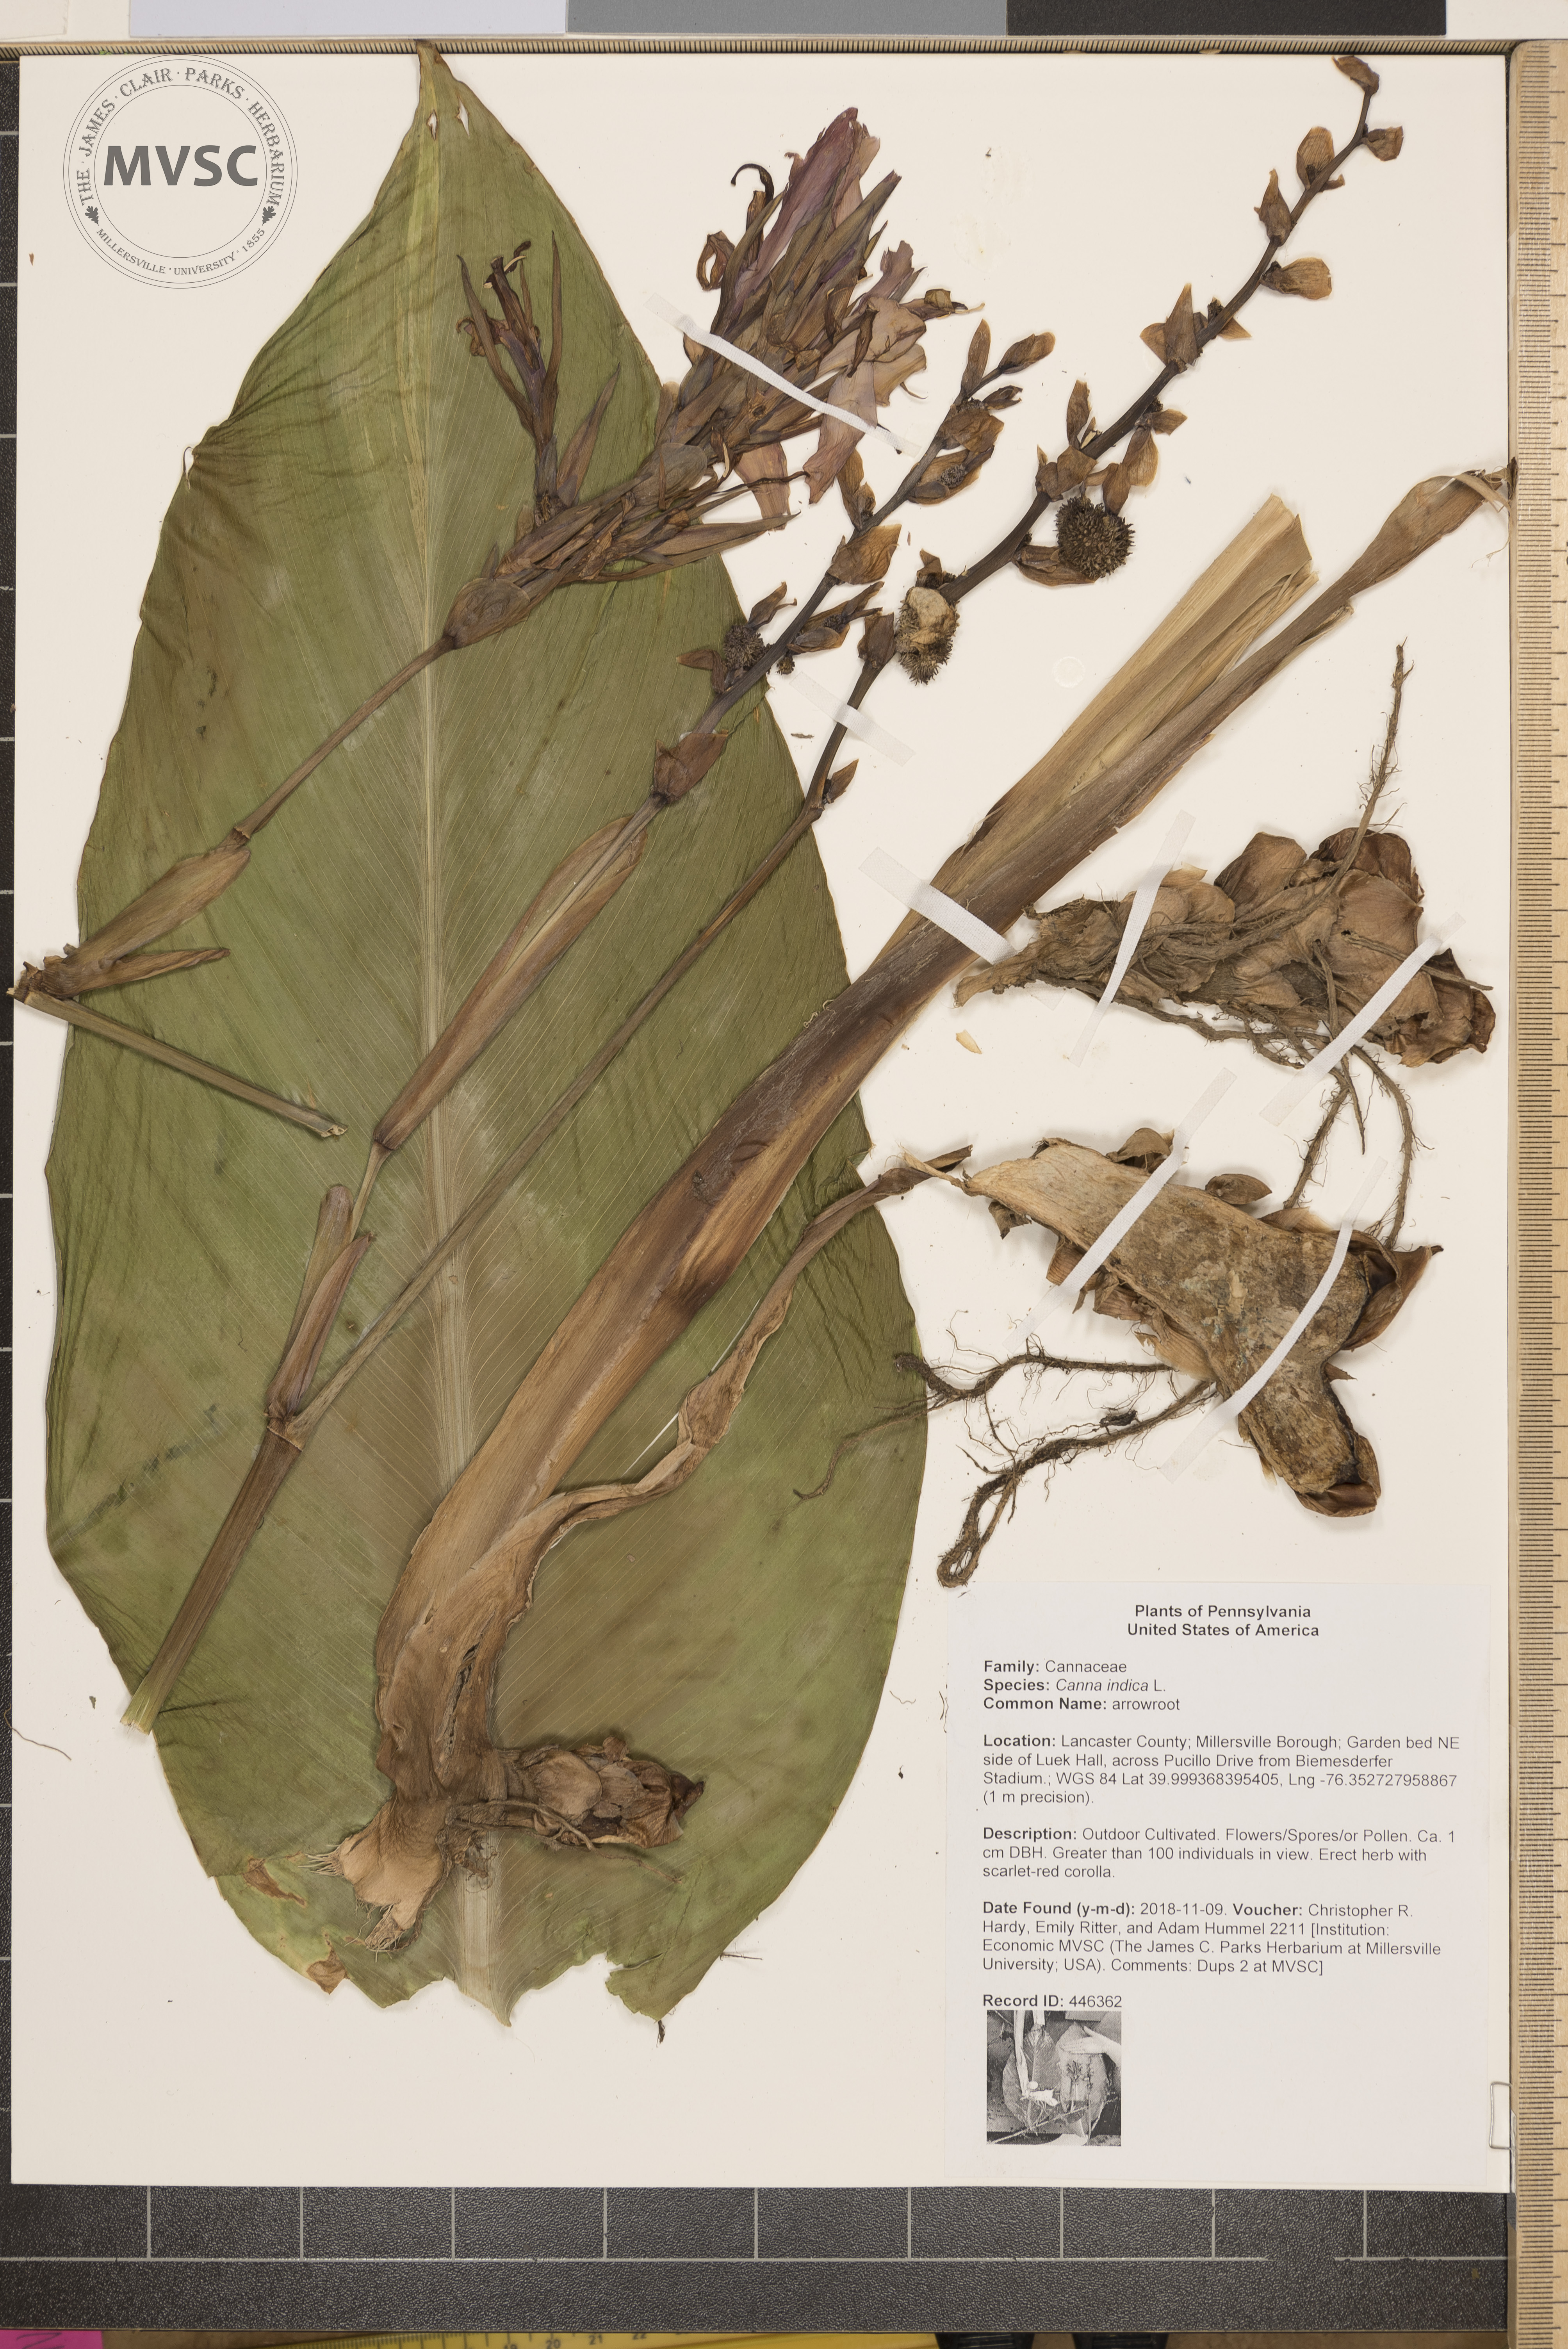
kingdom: Plantae
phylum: Tracheophyta
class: Liliopsida
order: Zingiberales
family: Cannaceae
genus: Canna
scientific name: Canna indica
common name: arrowroot
